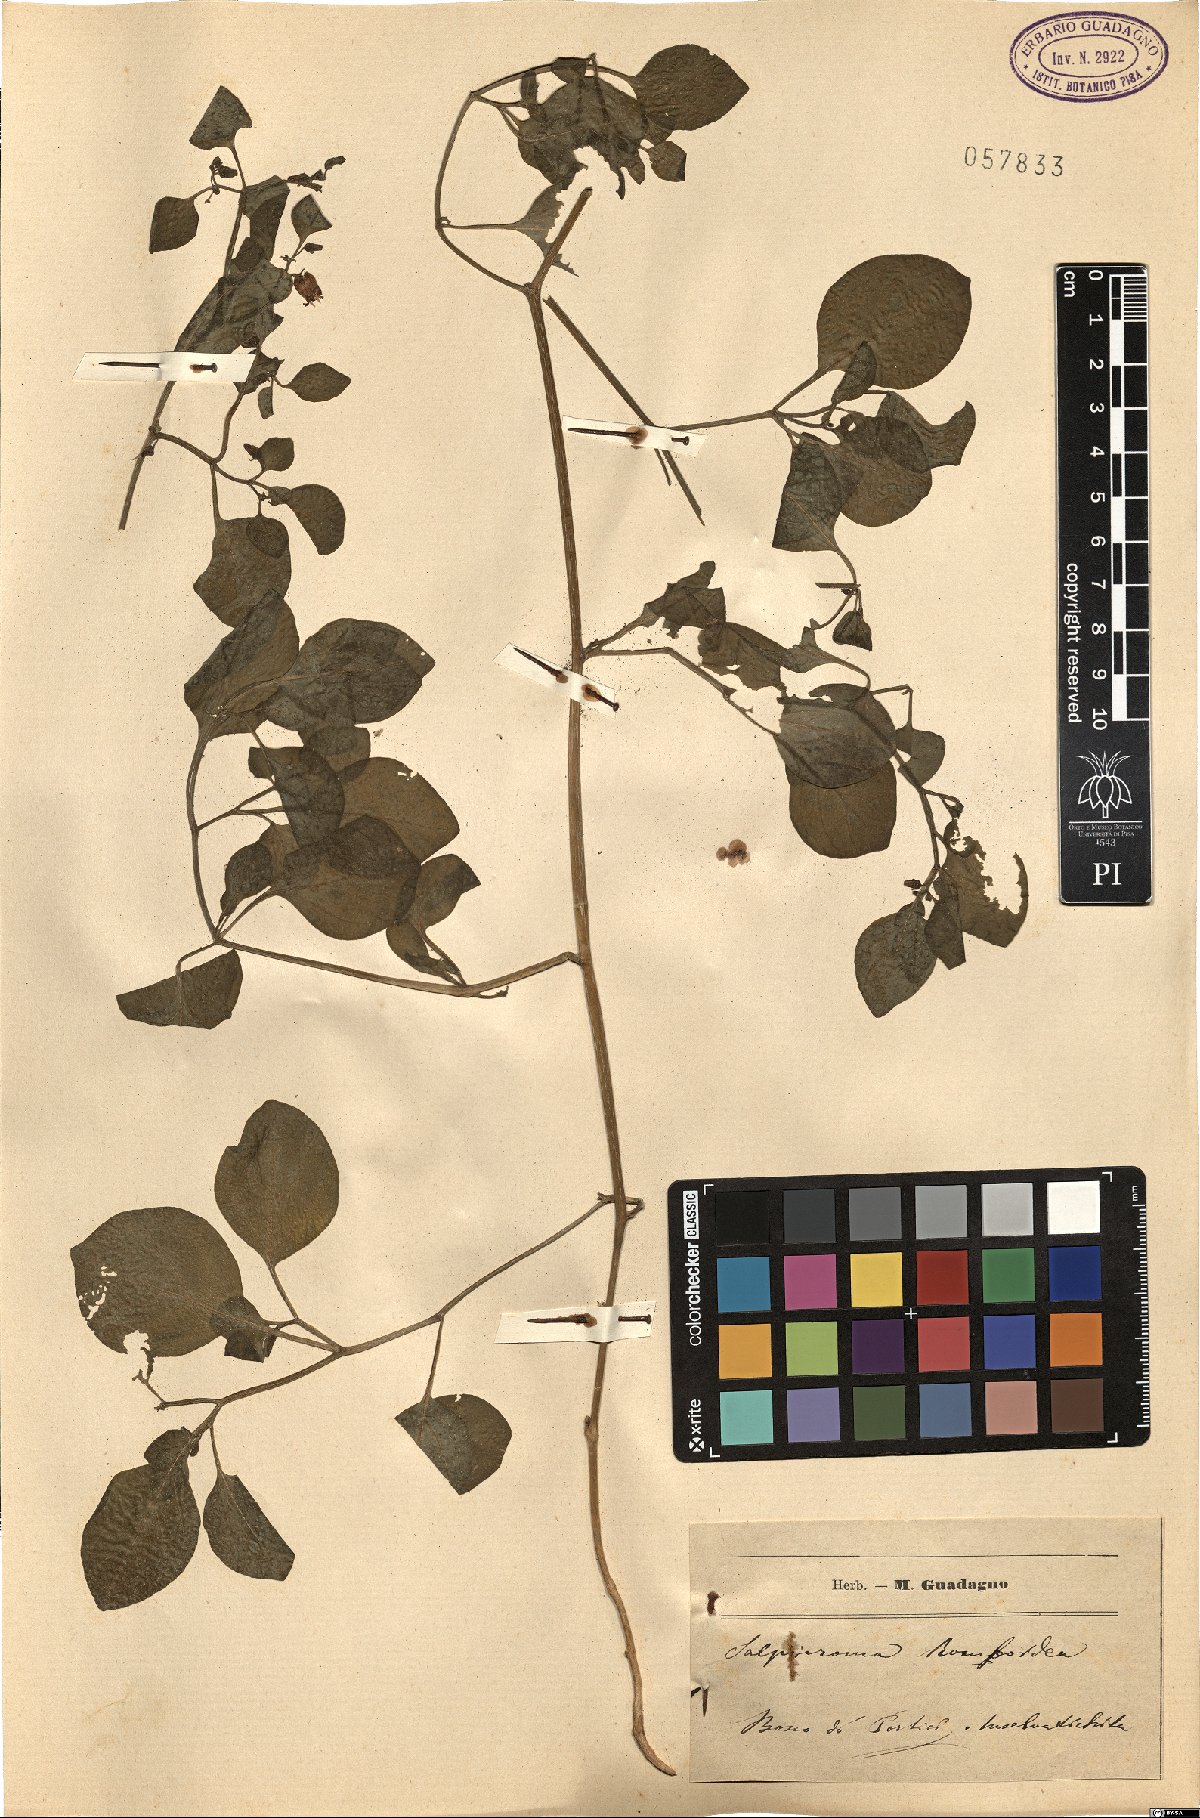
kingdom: Plantae
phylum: Tracheophyta
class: Magnoliopsida
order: Solanales
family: Solanaceae
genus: Salpichroa
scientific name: Salpichroa origanifolia
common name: Lily-of-the-valley-vine
